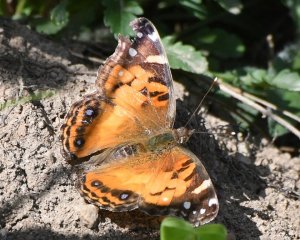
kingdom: Animalia
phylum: Arthropoda
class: Insecta
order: Lepidoptera
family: Nymphalidae
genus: Vanessa
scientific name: Vanessa virginiensis
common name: American Lady
